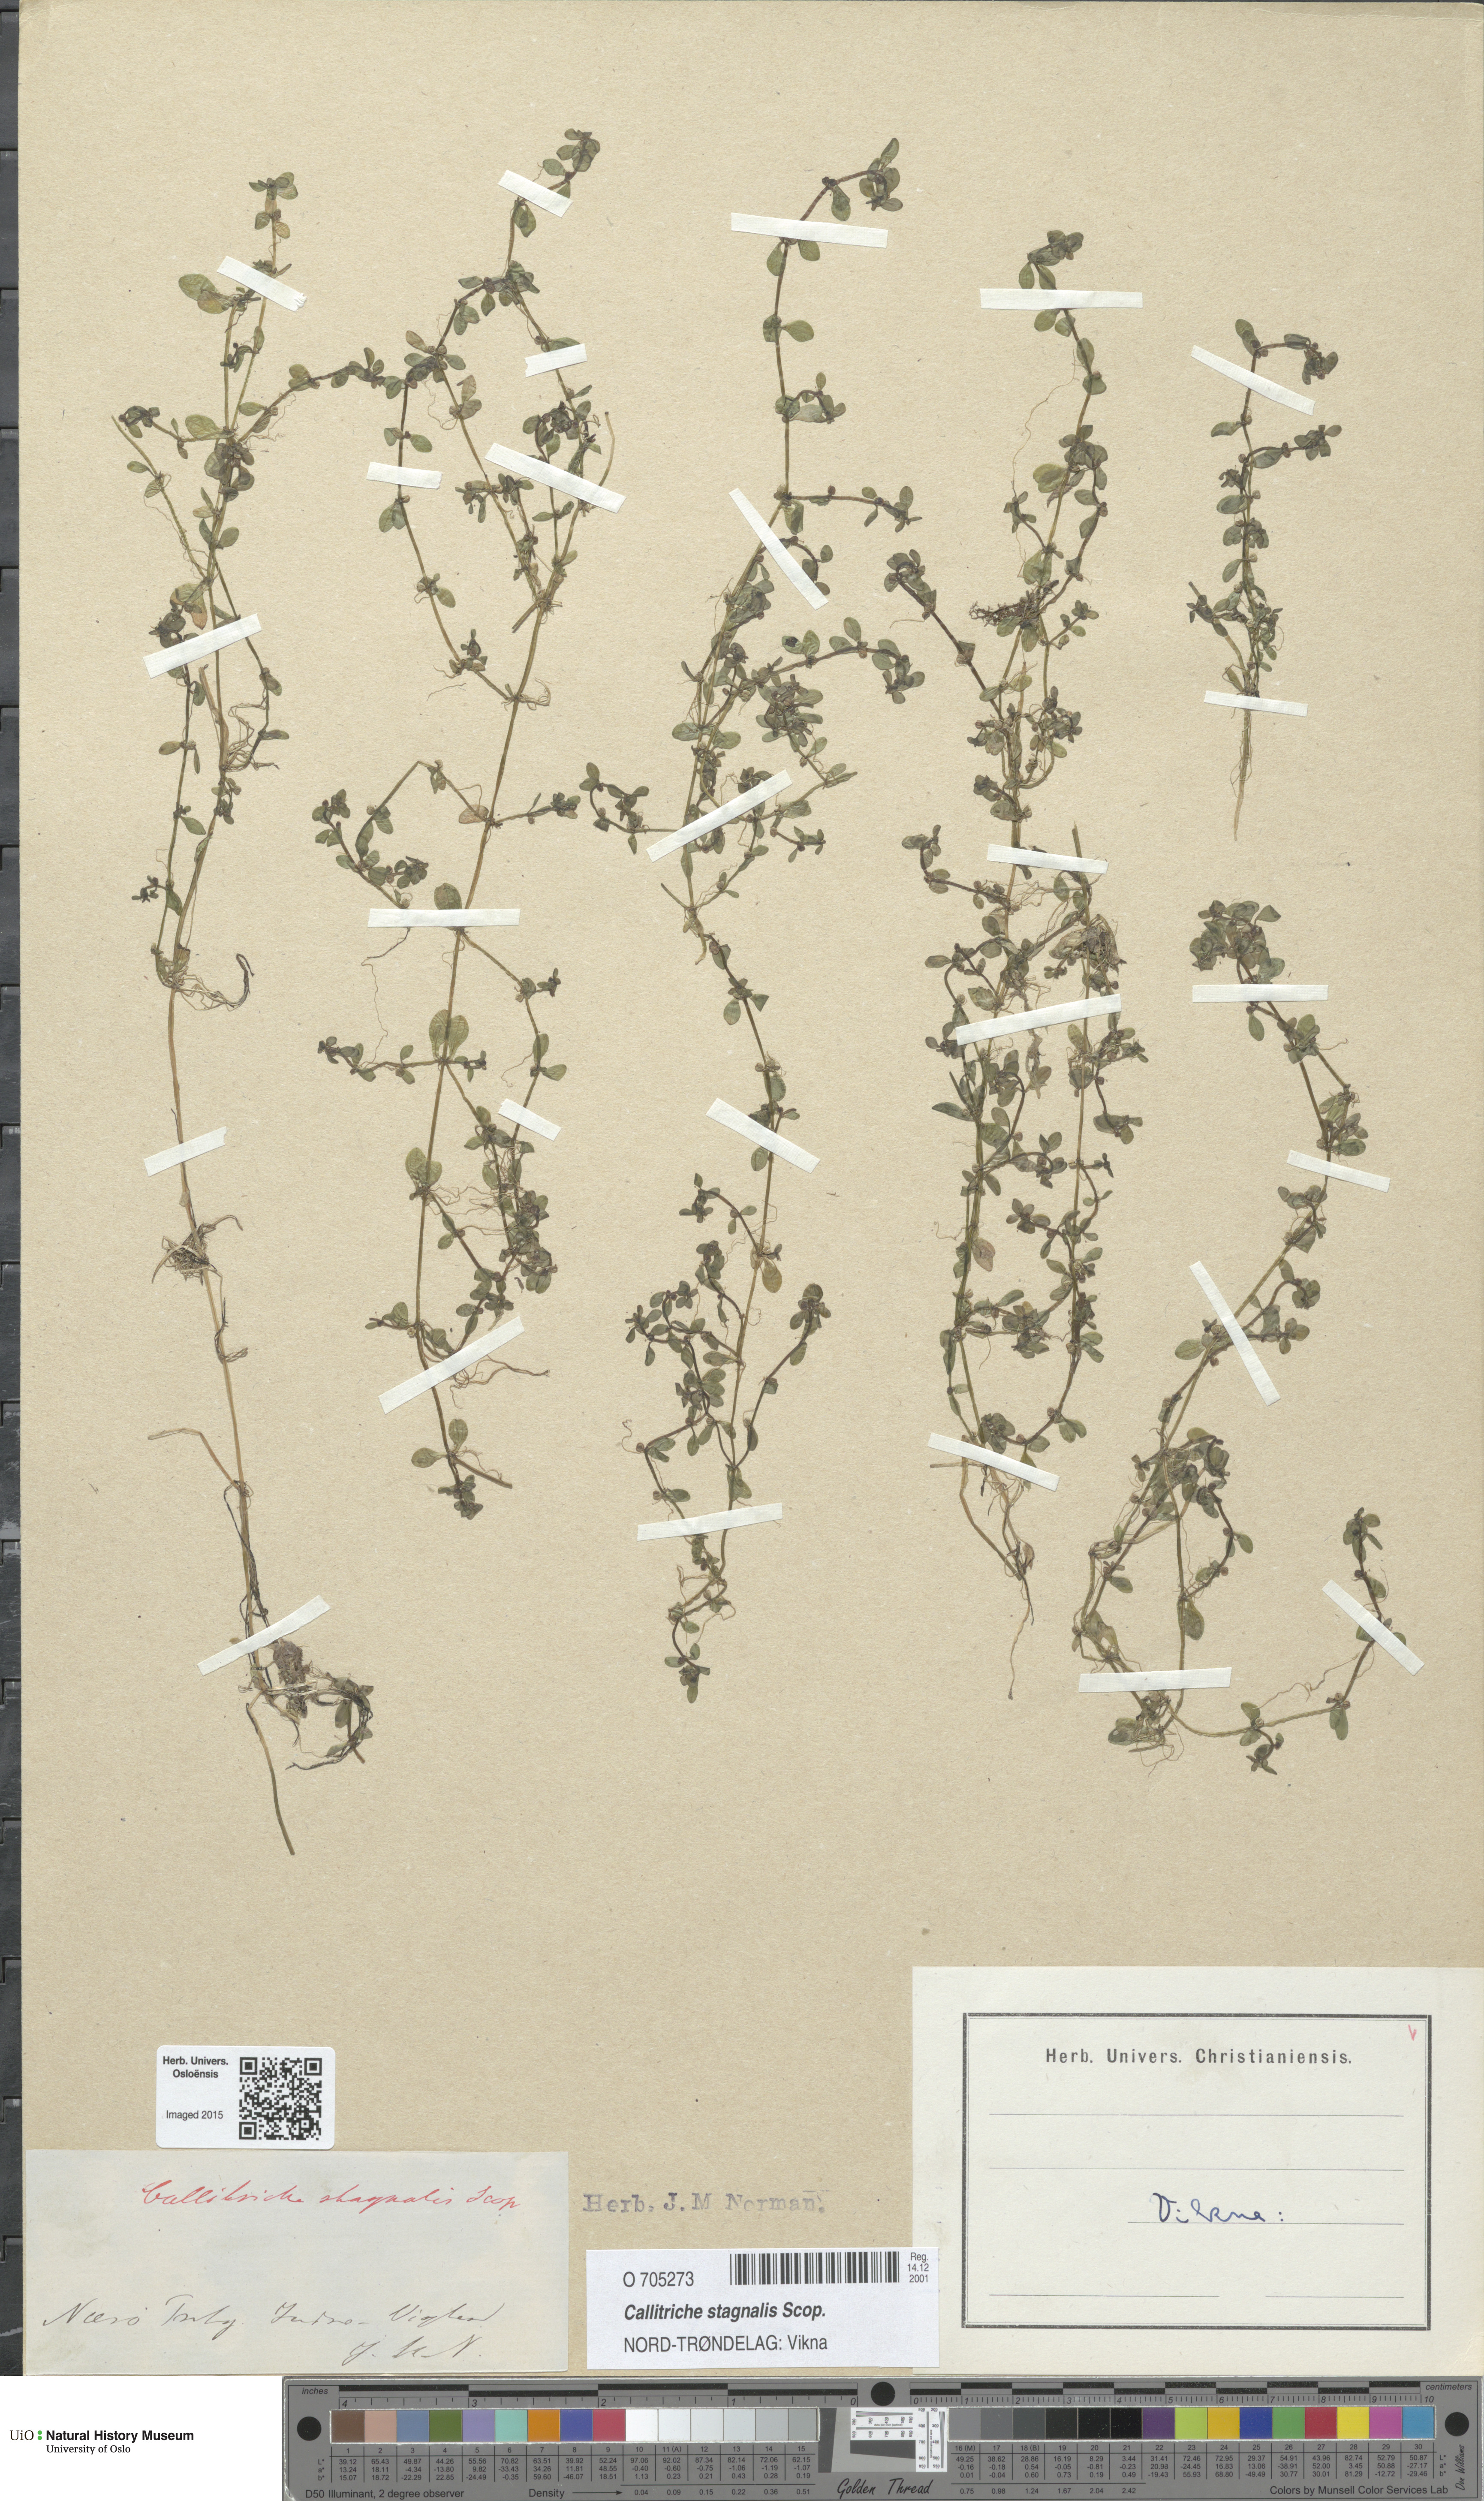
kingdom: Plantae
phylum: Tracheophyta
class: Magnoliopsida
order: Lamiales
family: Plantaginaceae
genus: Callitriche
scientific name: Callitriche stagnalis
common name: Common water-starwort
